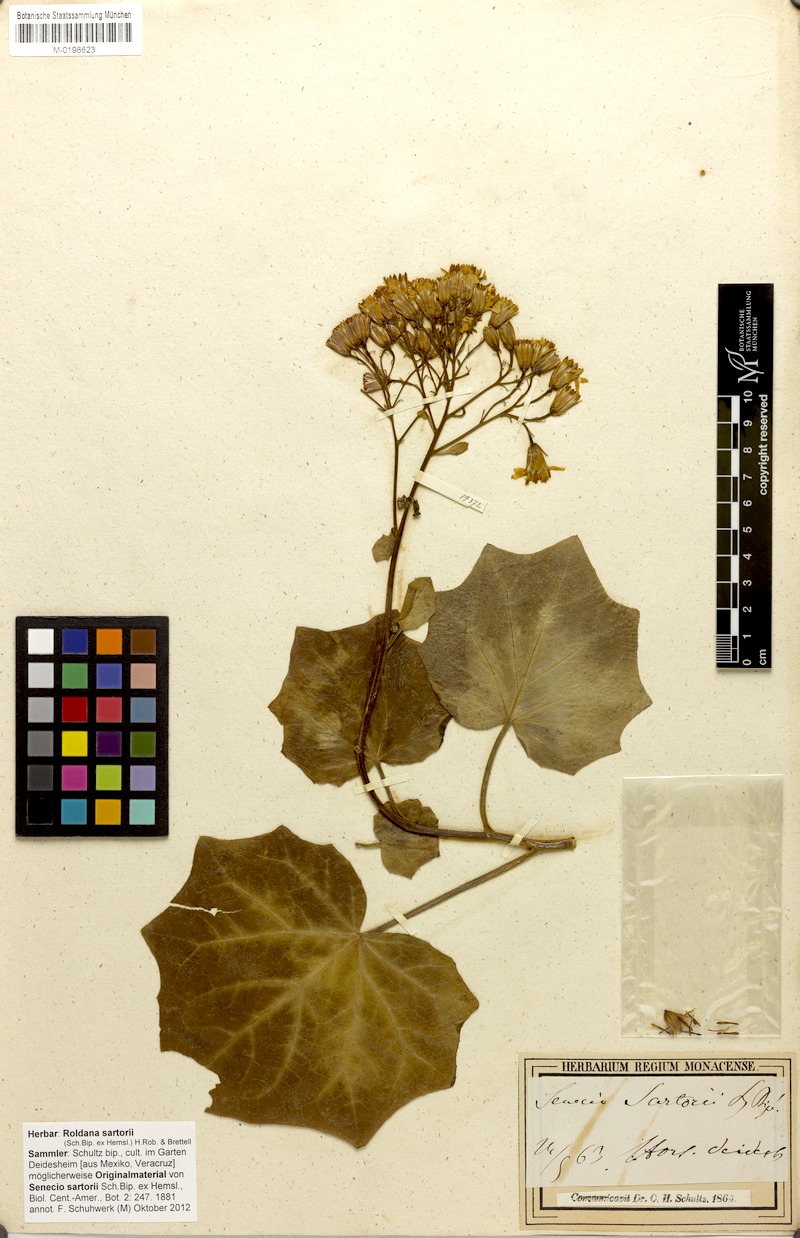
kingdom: Plantae
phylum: Tracheophyta
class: Magnoliopsida
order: Asterales
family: Asteraceae
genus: Roldana
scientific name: Roldana petasitis
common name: California-geranium
